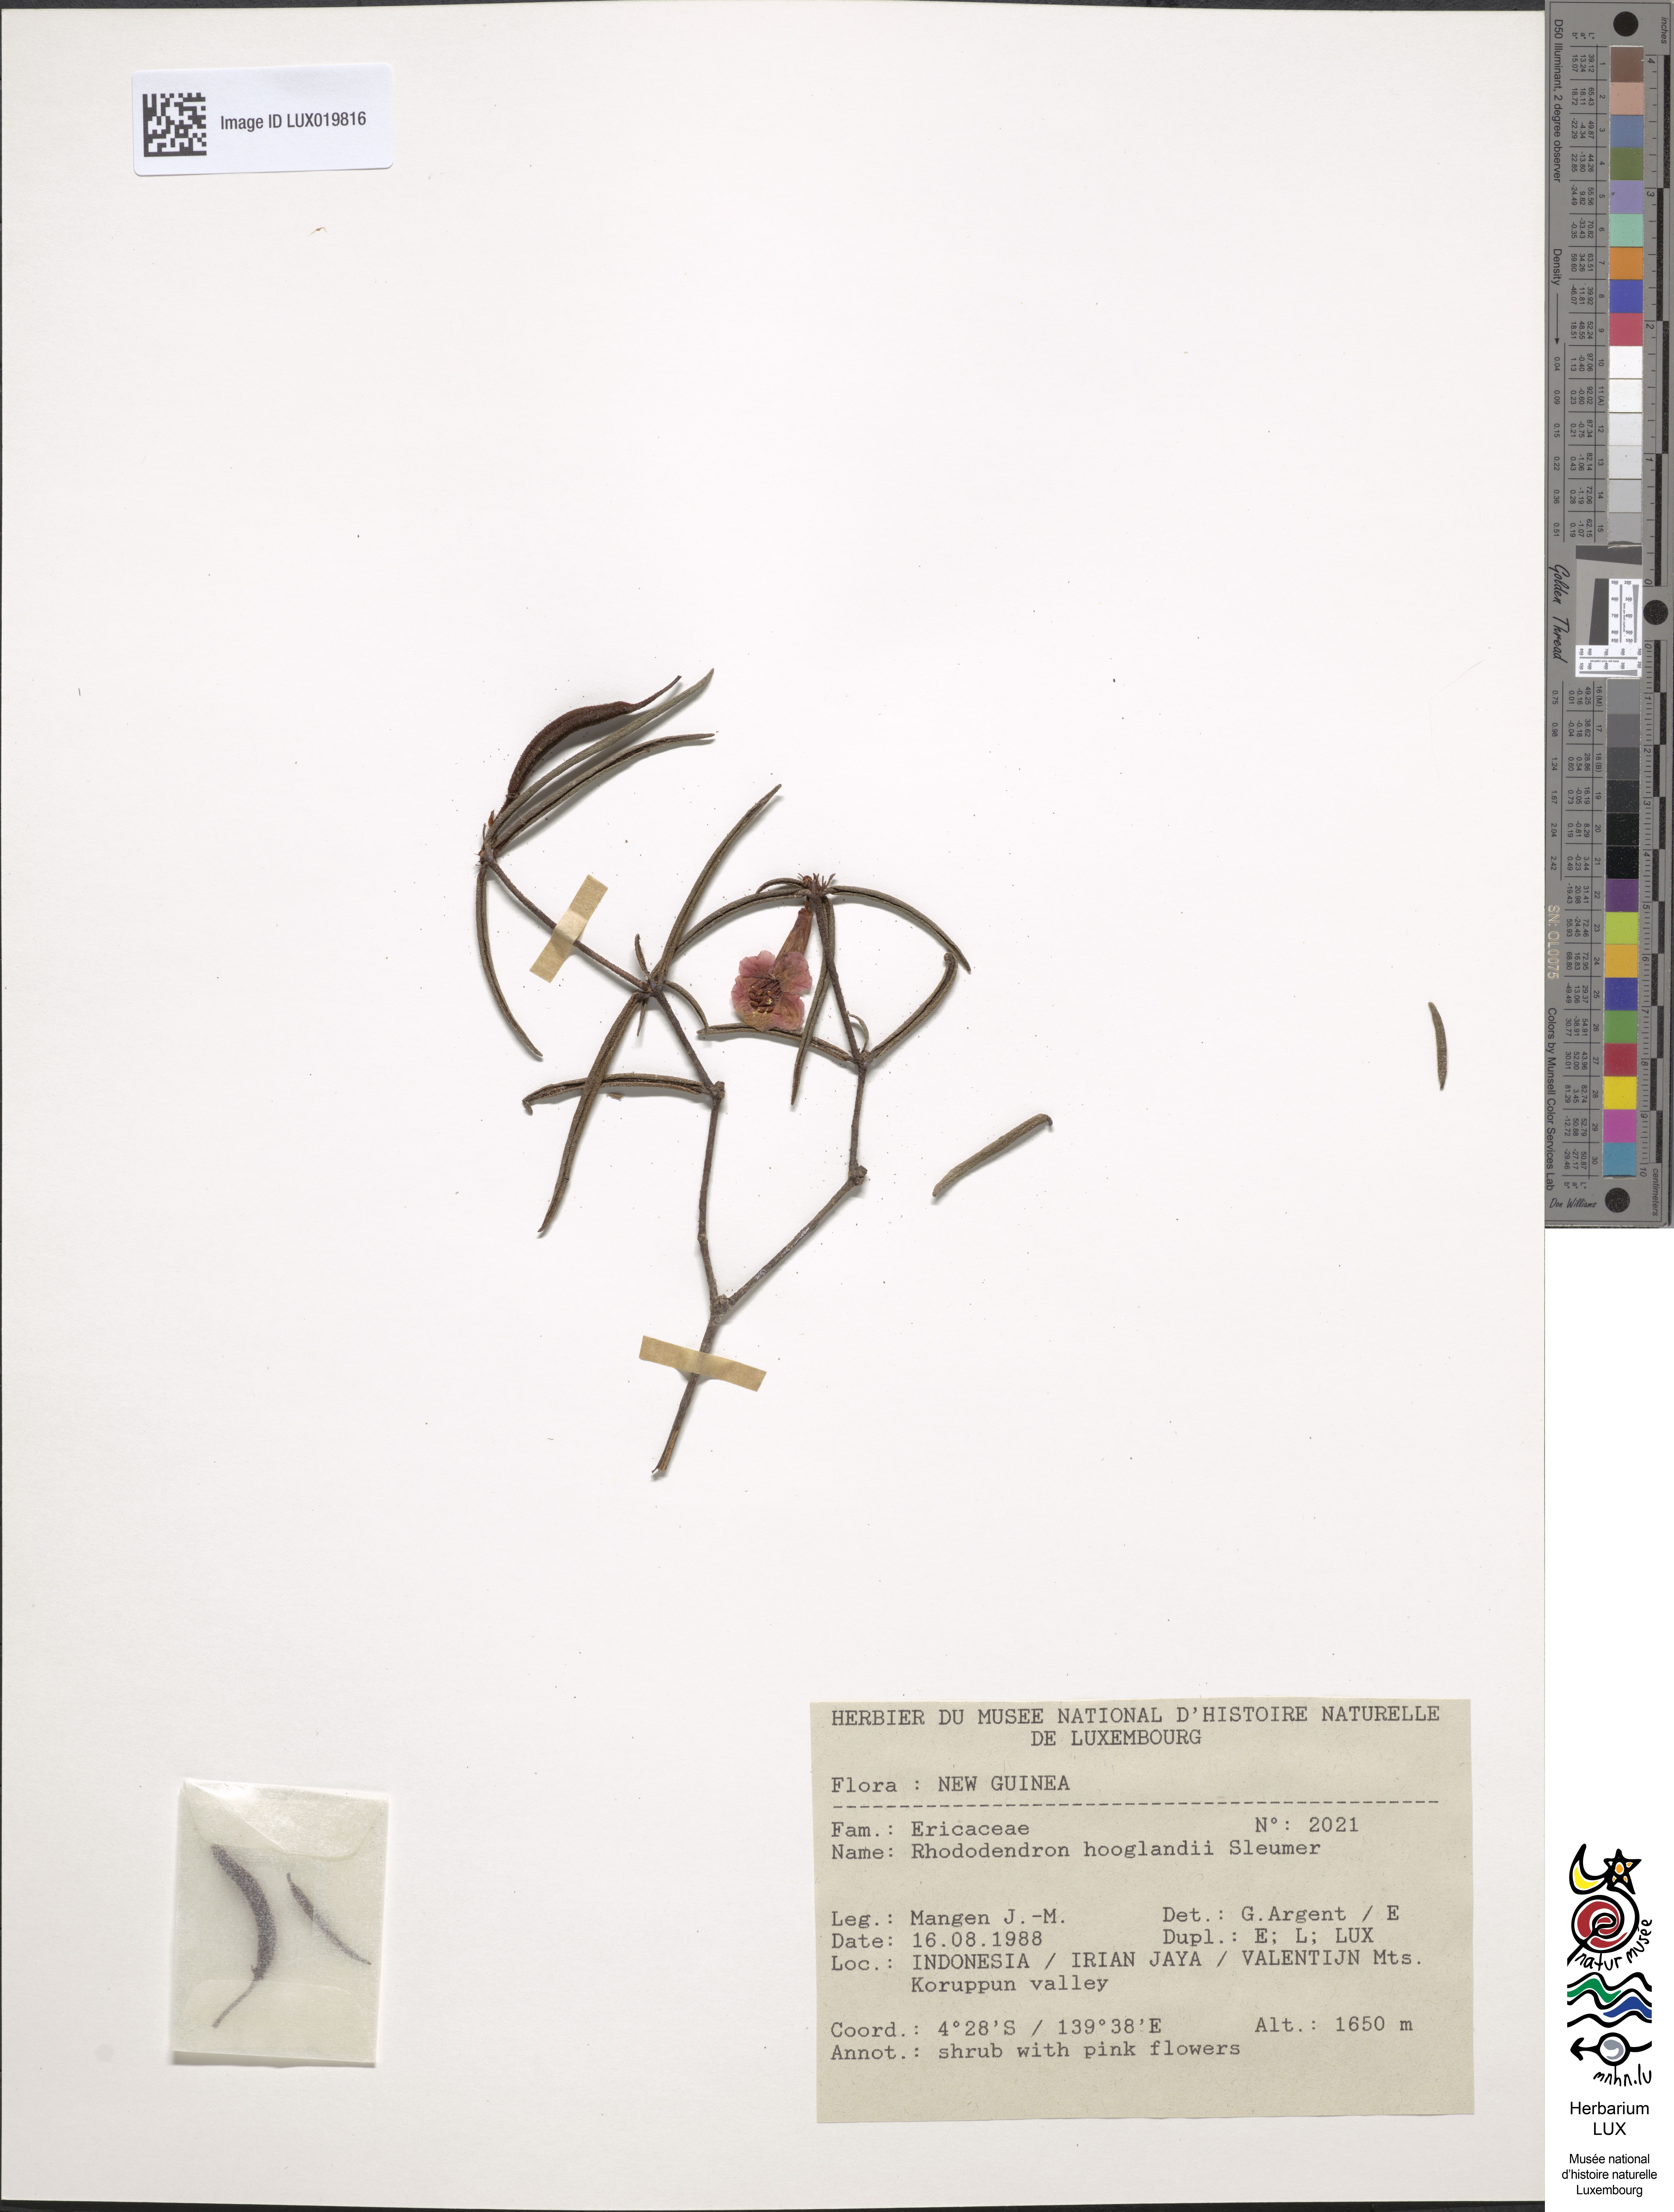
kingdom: Plantae
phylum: Tracheophyta
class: Magnoliopsida
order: Ericales
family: Ericaceae
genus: Rhododendron
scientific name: Rhododendron hooglandii
